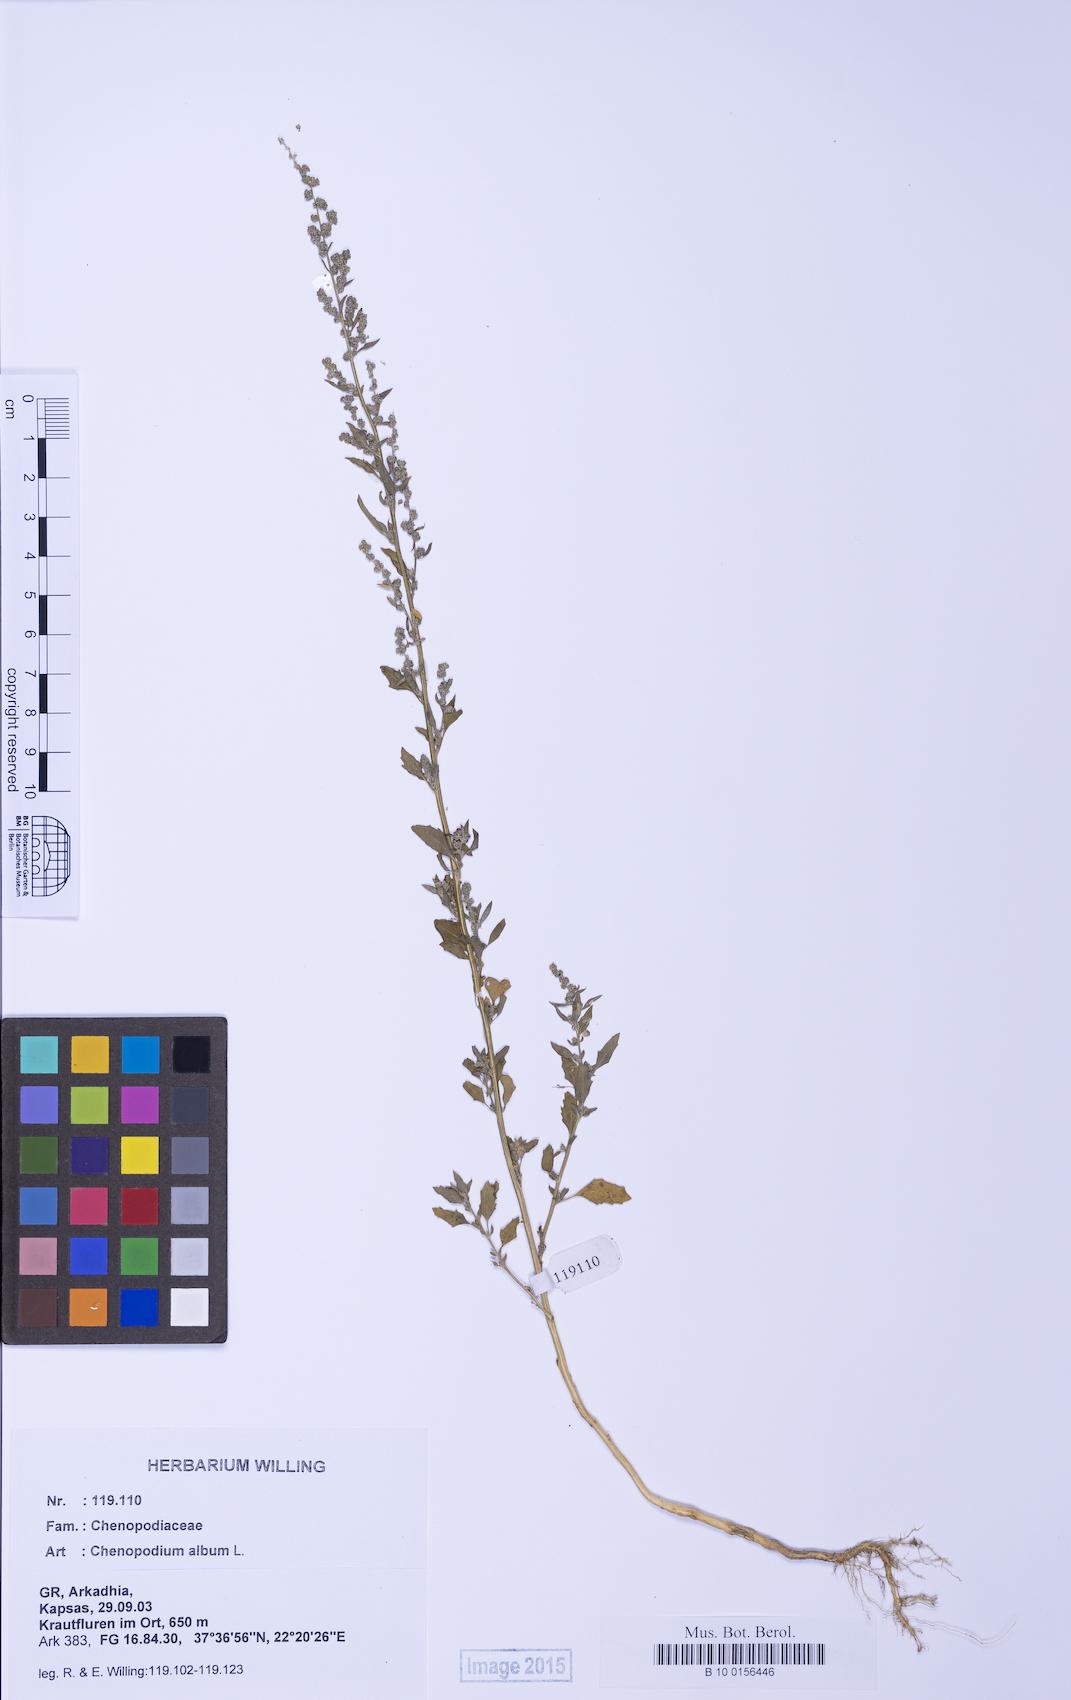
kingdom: Plantae
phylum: Tracheophyta
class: Magnoliopsida
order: Caryophyllales
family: Amaranthaceae
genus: Chenopodium
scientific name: Chenopodium album
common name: Fat-hen
